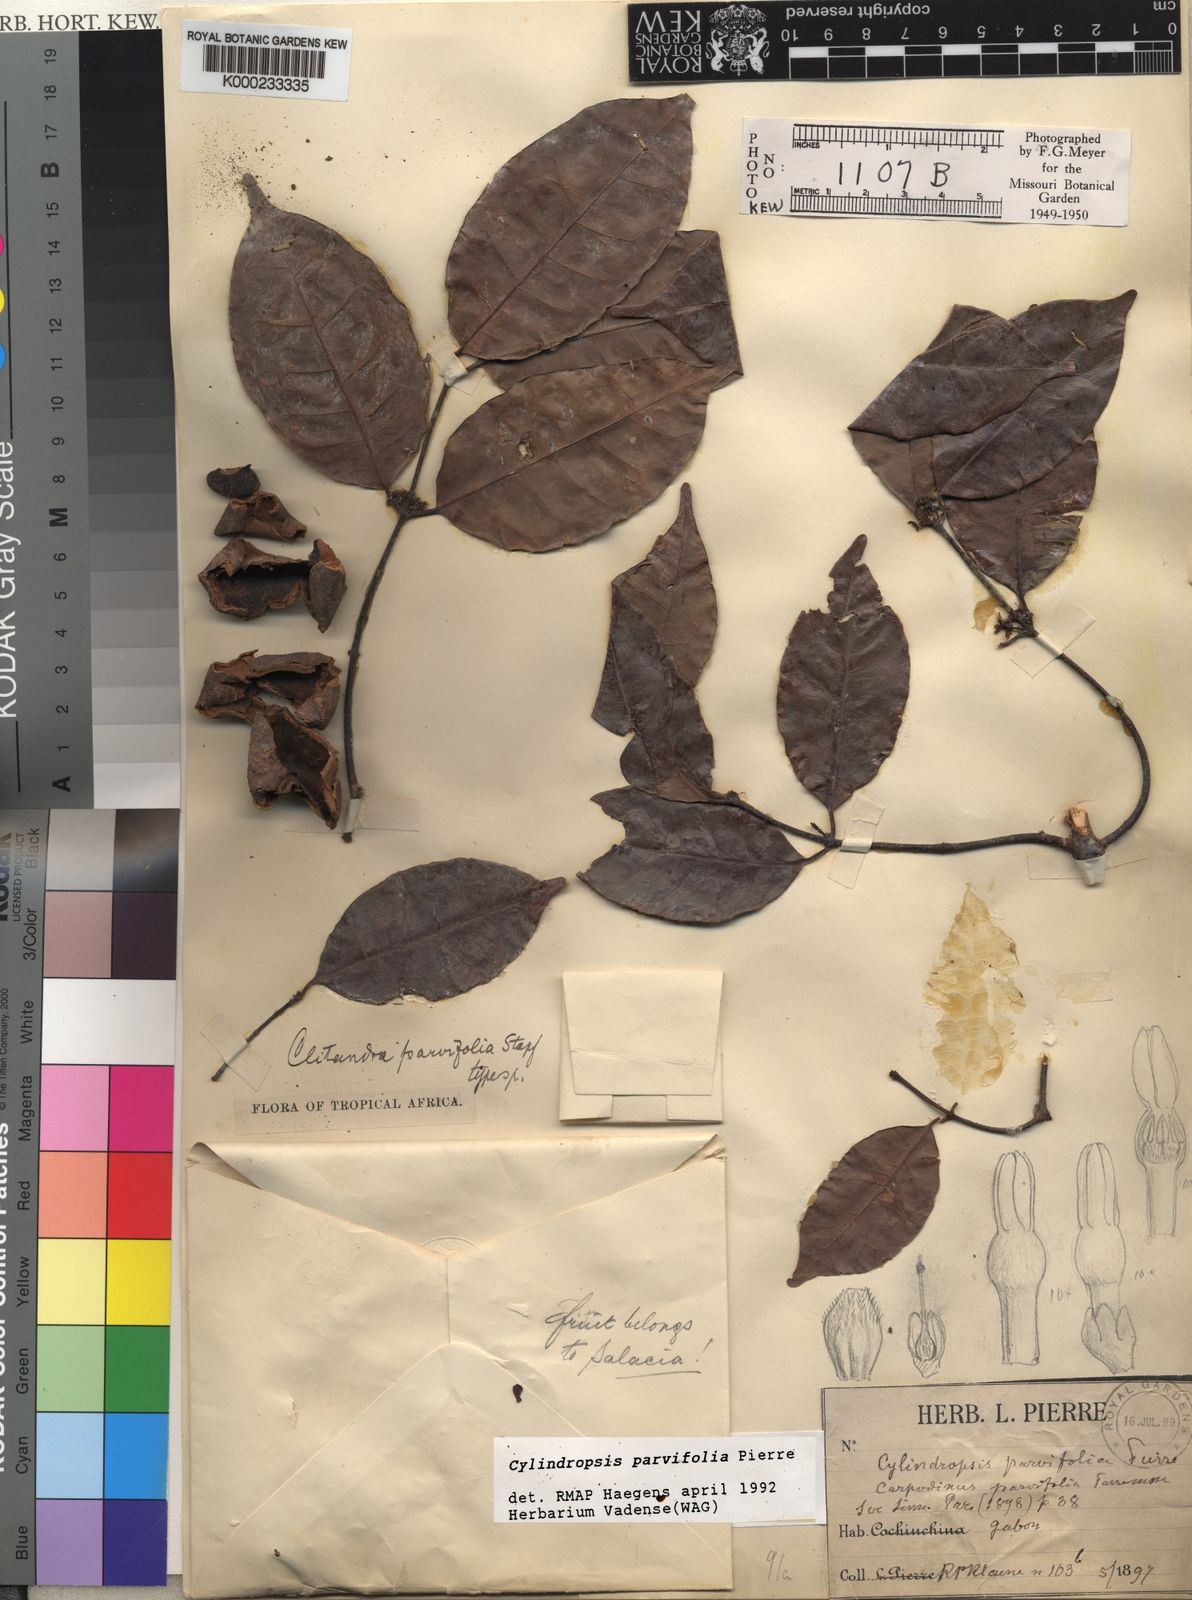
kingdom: Plantae
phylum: Tracheophyta
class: Magnoliopsida
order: Gentianales
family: Apocynaceae
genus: Cylindropsis
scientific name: Cylindropsis parvifolia
